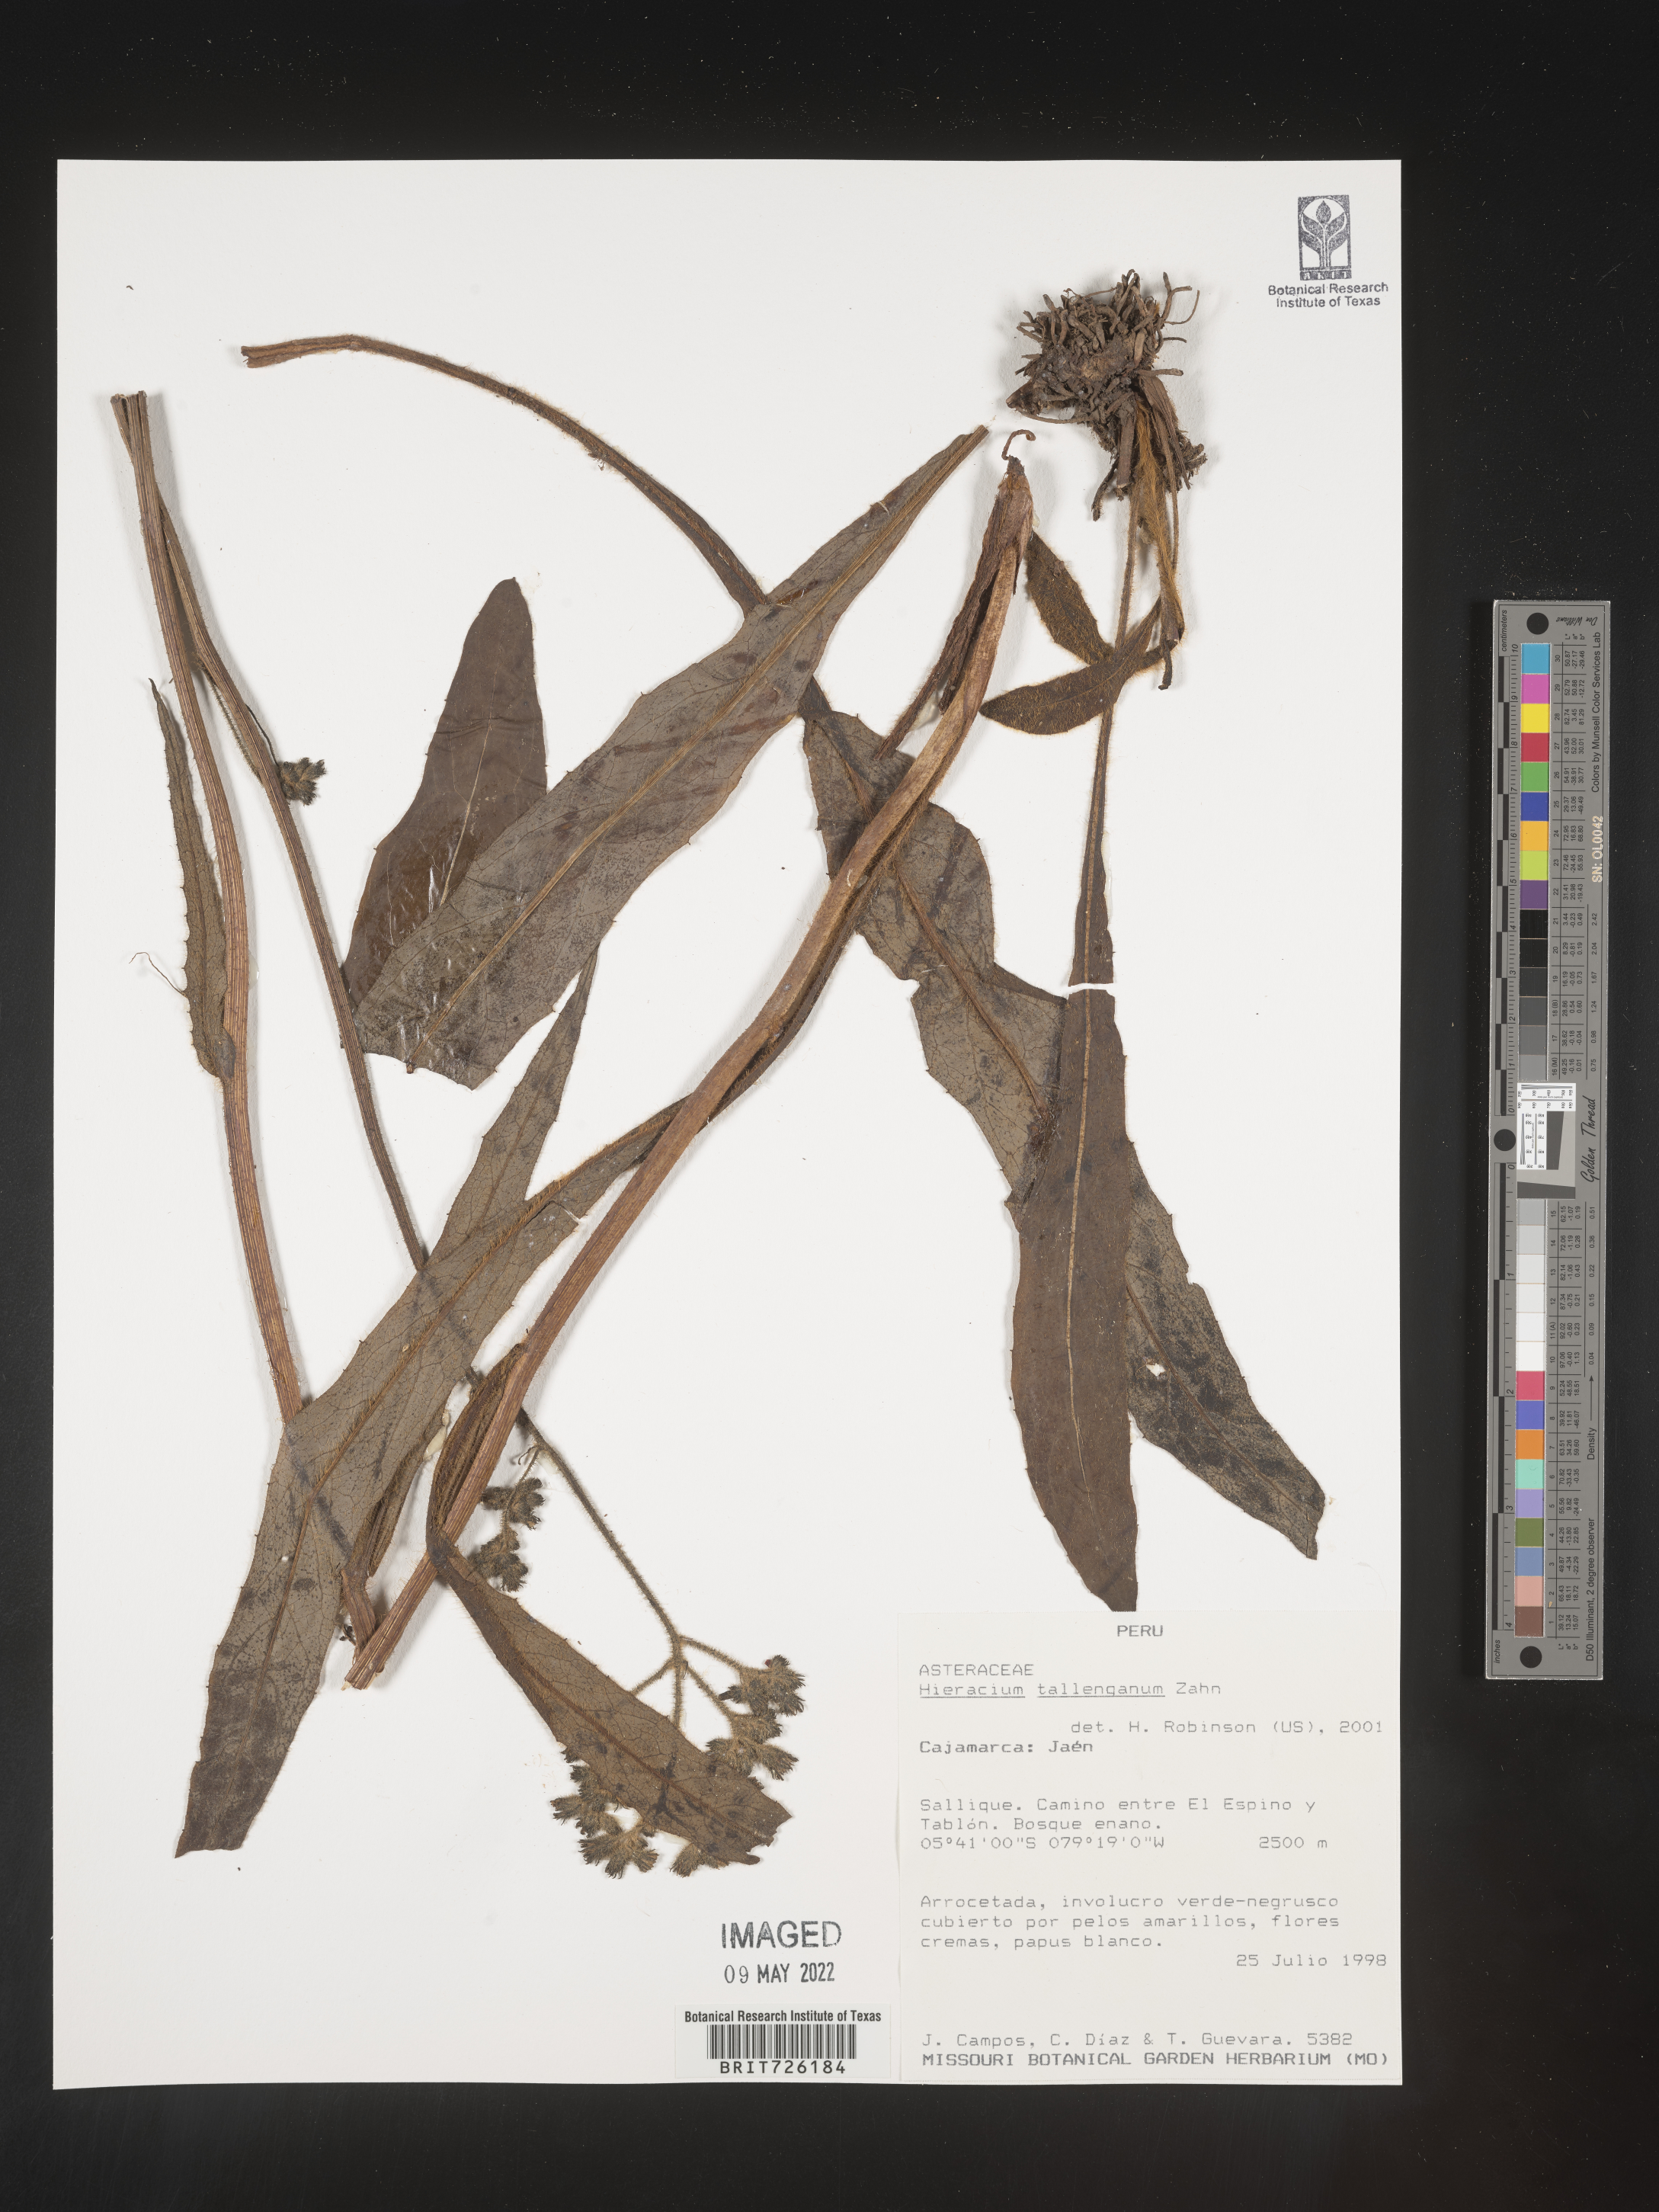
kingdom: Plantae
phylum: Tracheophyta
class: Magnoliopsida
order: Asterales
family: Asteraceae
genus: Hieracium
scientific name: Hieracium
